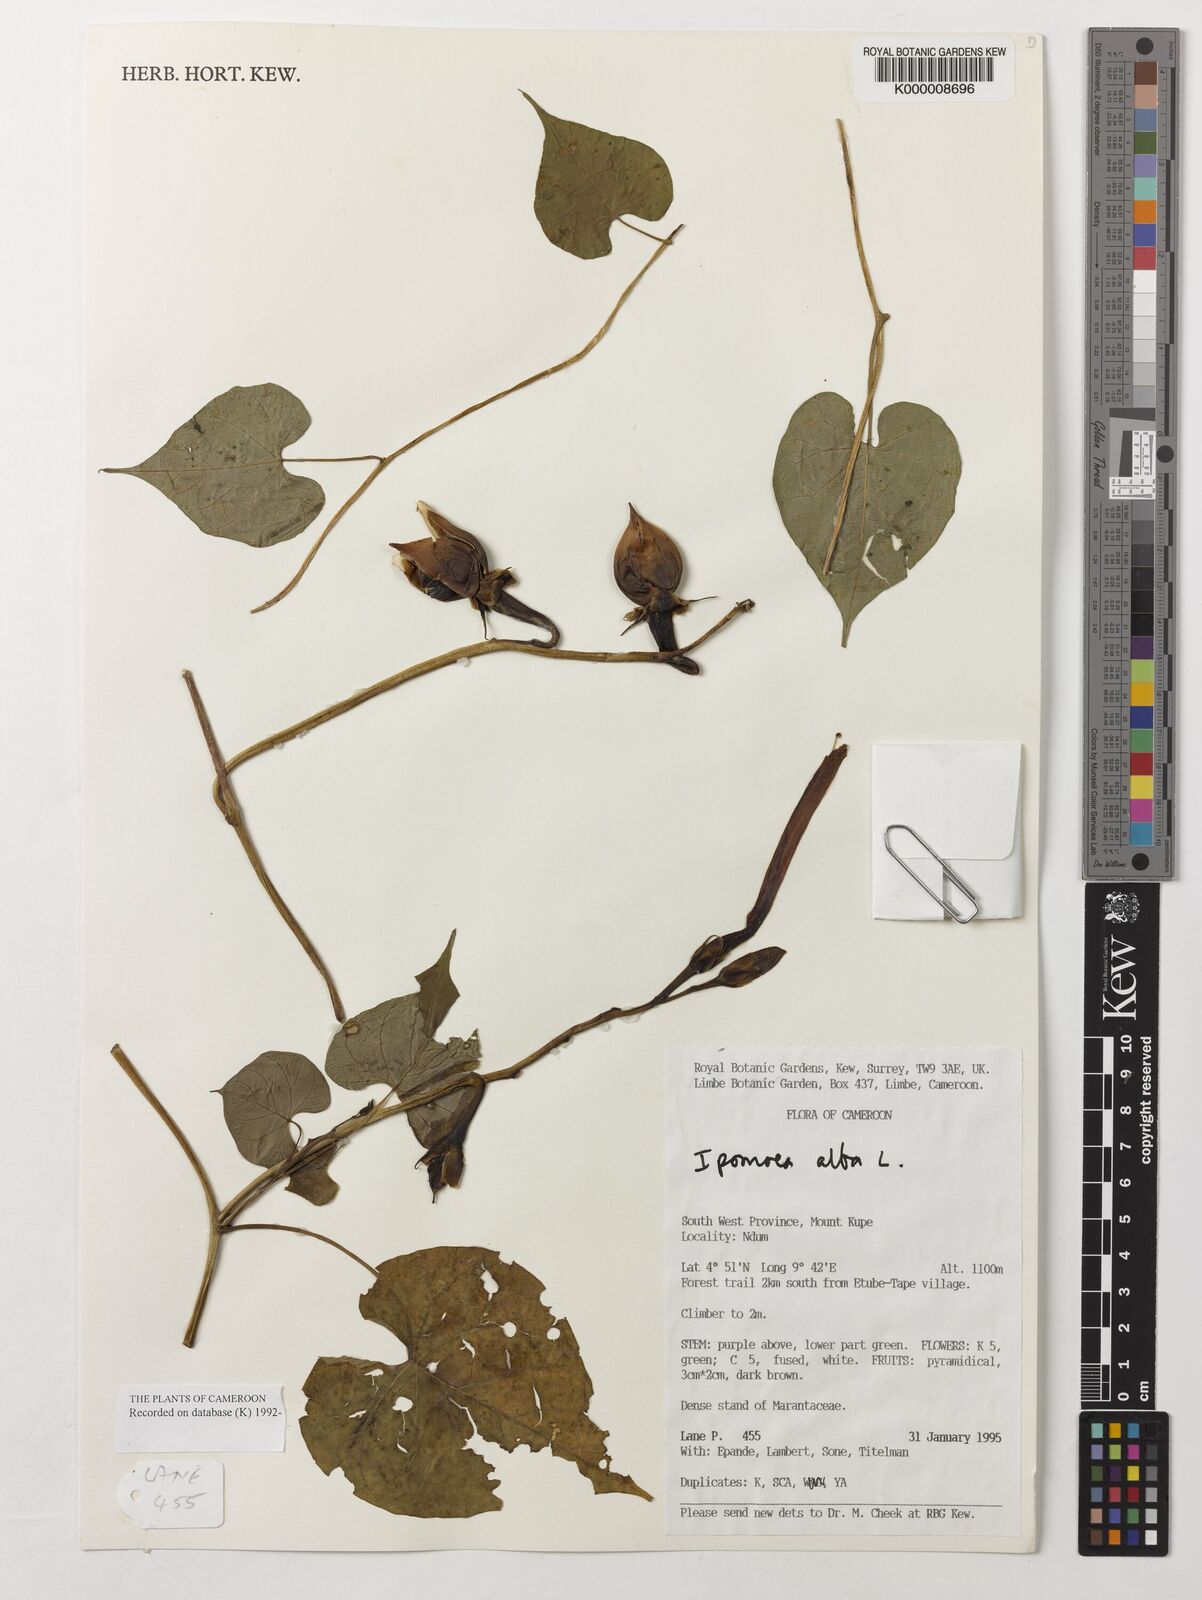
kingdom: Plantae
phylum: Tracheophyta
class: Magnoliopsida
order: Solanales
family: Convolvulaceae
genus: Ipomoea
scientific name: Ipomoea alba
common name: Moonflower
